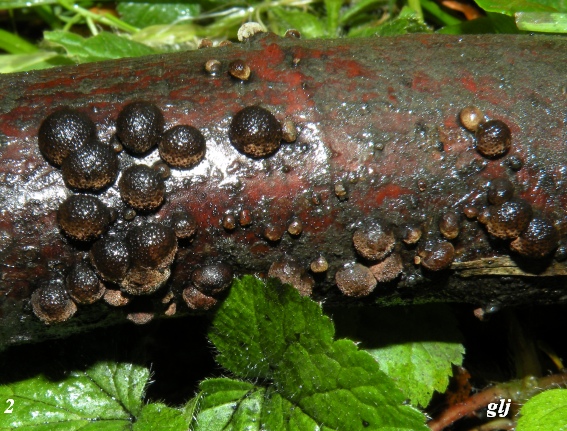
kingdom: Fungi
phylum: Ascomycota
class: Sordariomycetes
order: Xylariales
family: Hypoxylaceae
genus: Hypoxylon
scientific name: Hypoxylon fragiforme
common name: kuljordbær
